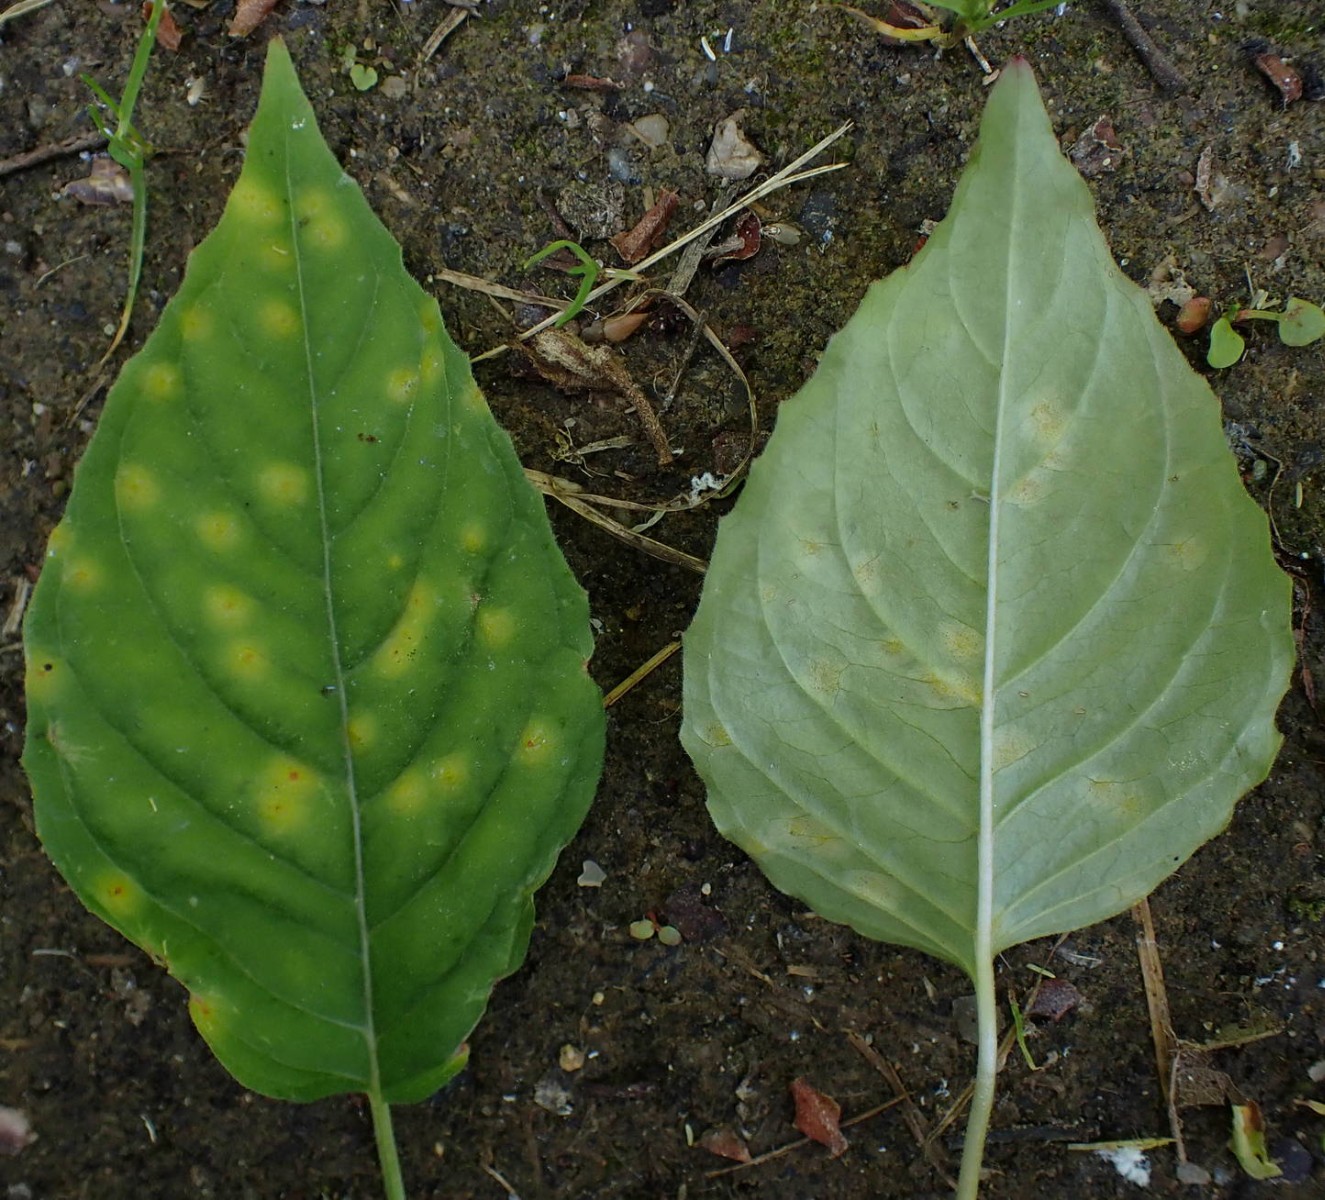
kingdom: Fungi
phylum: Basidiomycota
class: Pucciniomycetes
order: Pucciniales
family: Pucciniaceae
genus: Puccinia
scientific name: Puccinia circaeae-caricis
